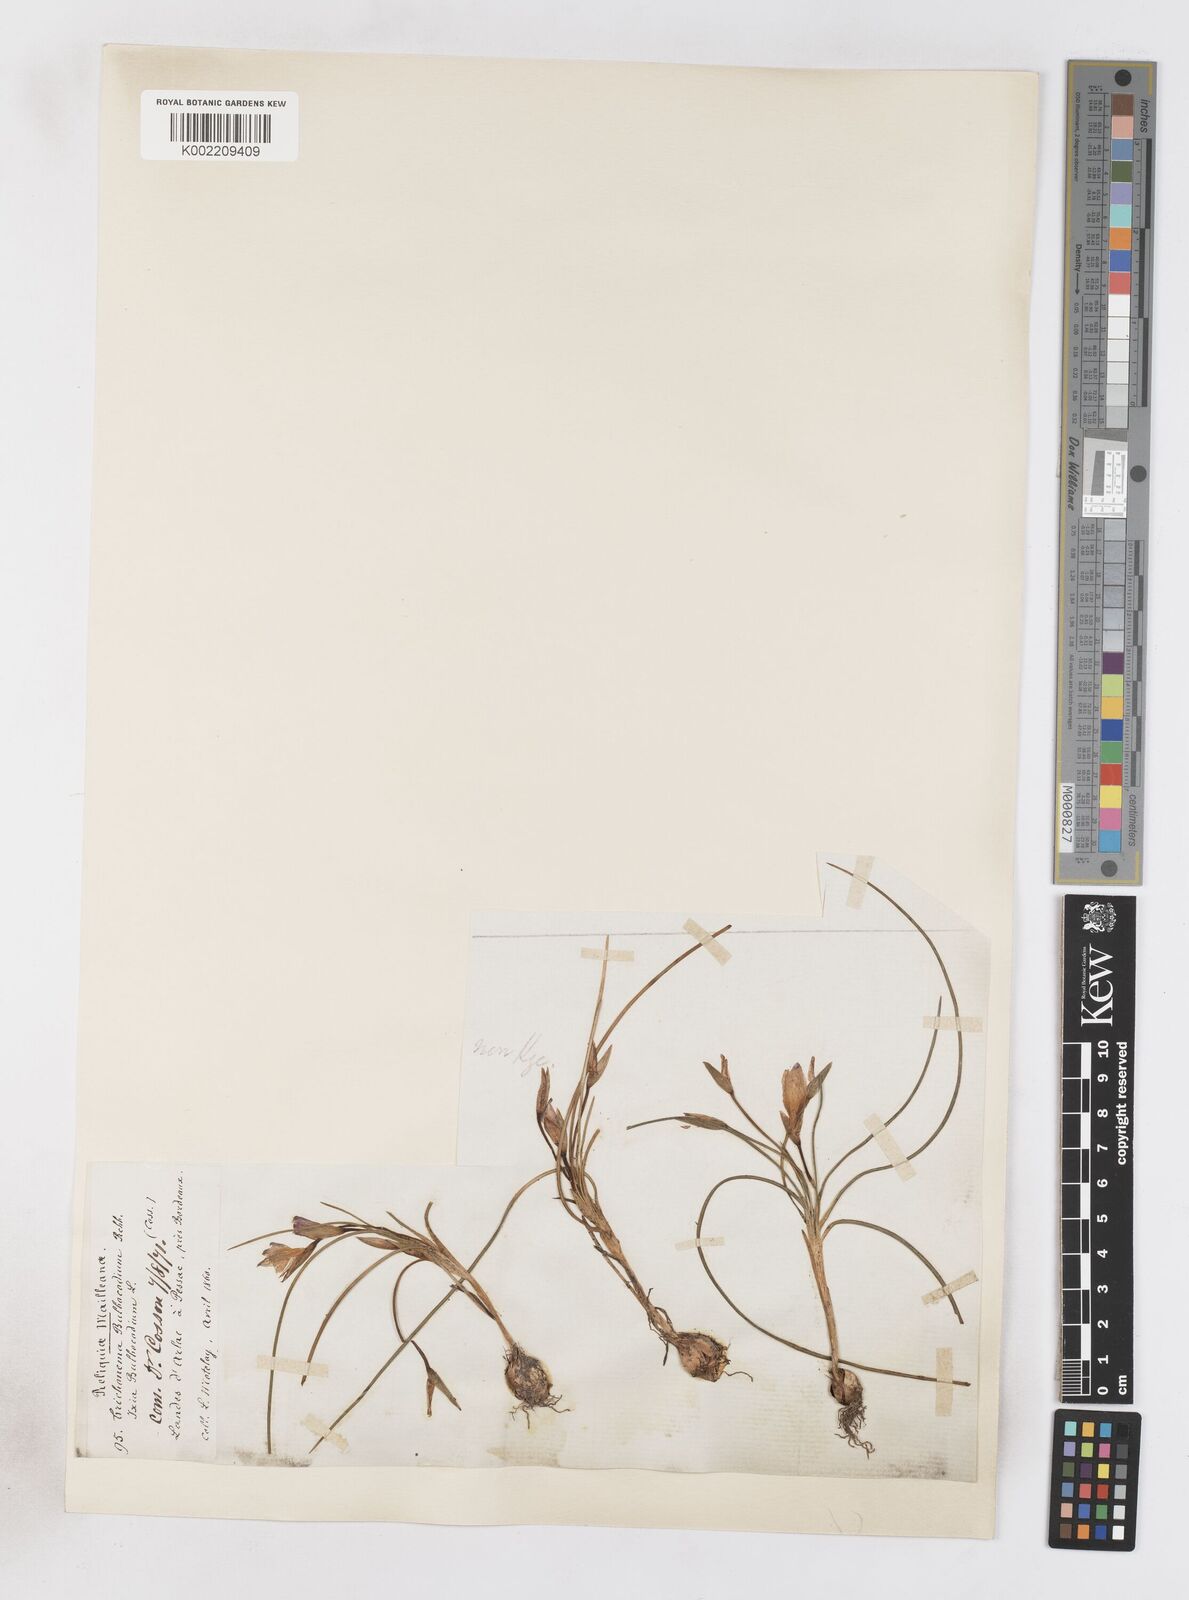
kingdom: Plantae
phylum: Tracheophyta
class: Liliopsida
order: Asparagales
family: Iridaceae
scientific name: Iridaceae
